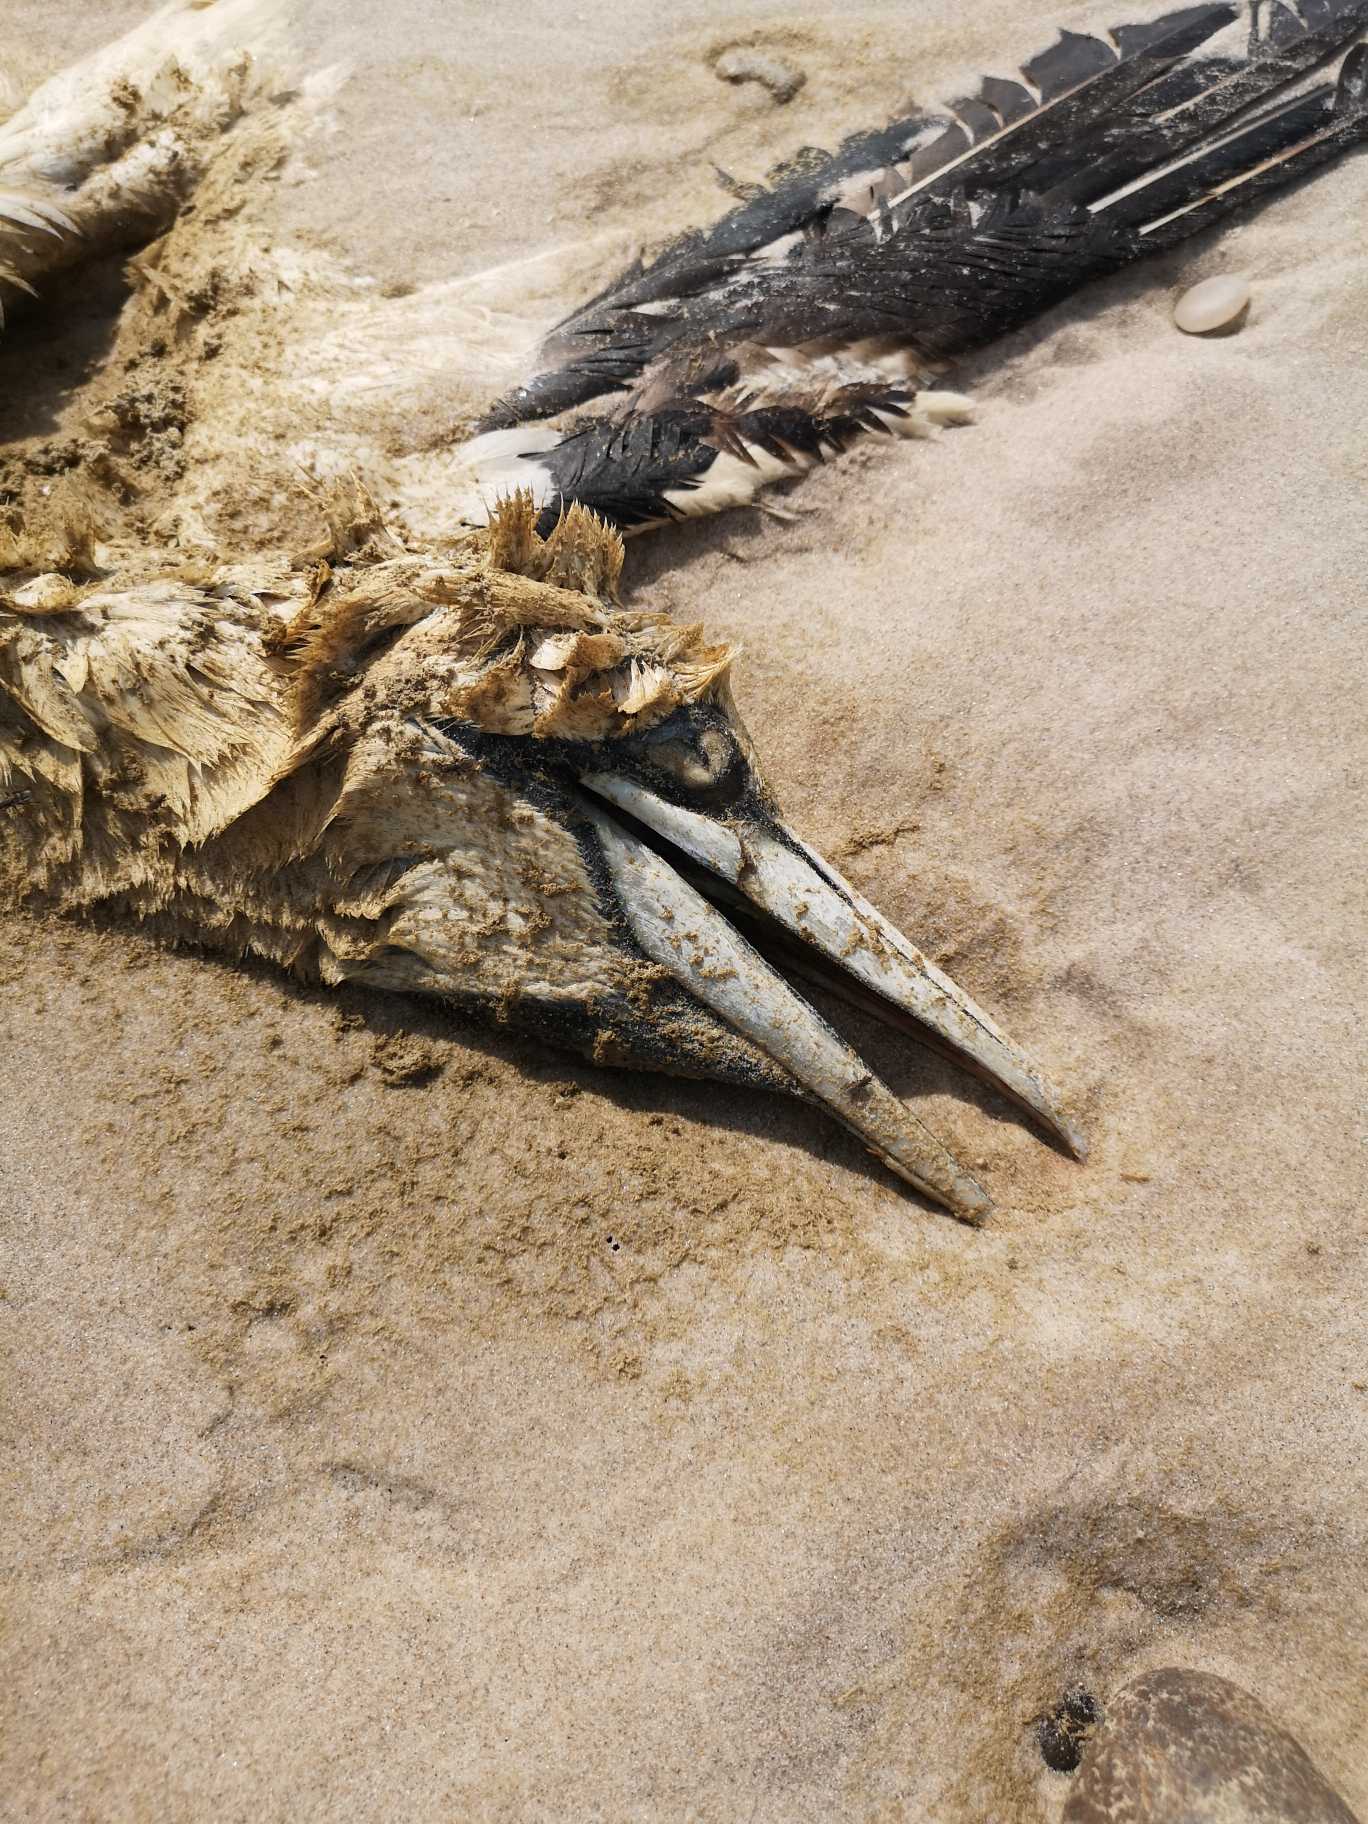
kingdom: Animalia
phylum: Chordata
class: Aves
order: Suliformes
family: Sulidae
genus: Morus
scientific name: Morus bassanus
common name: Sule
